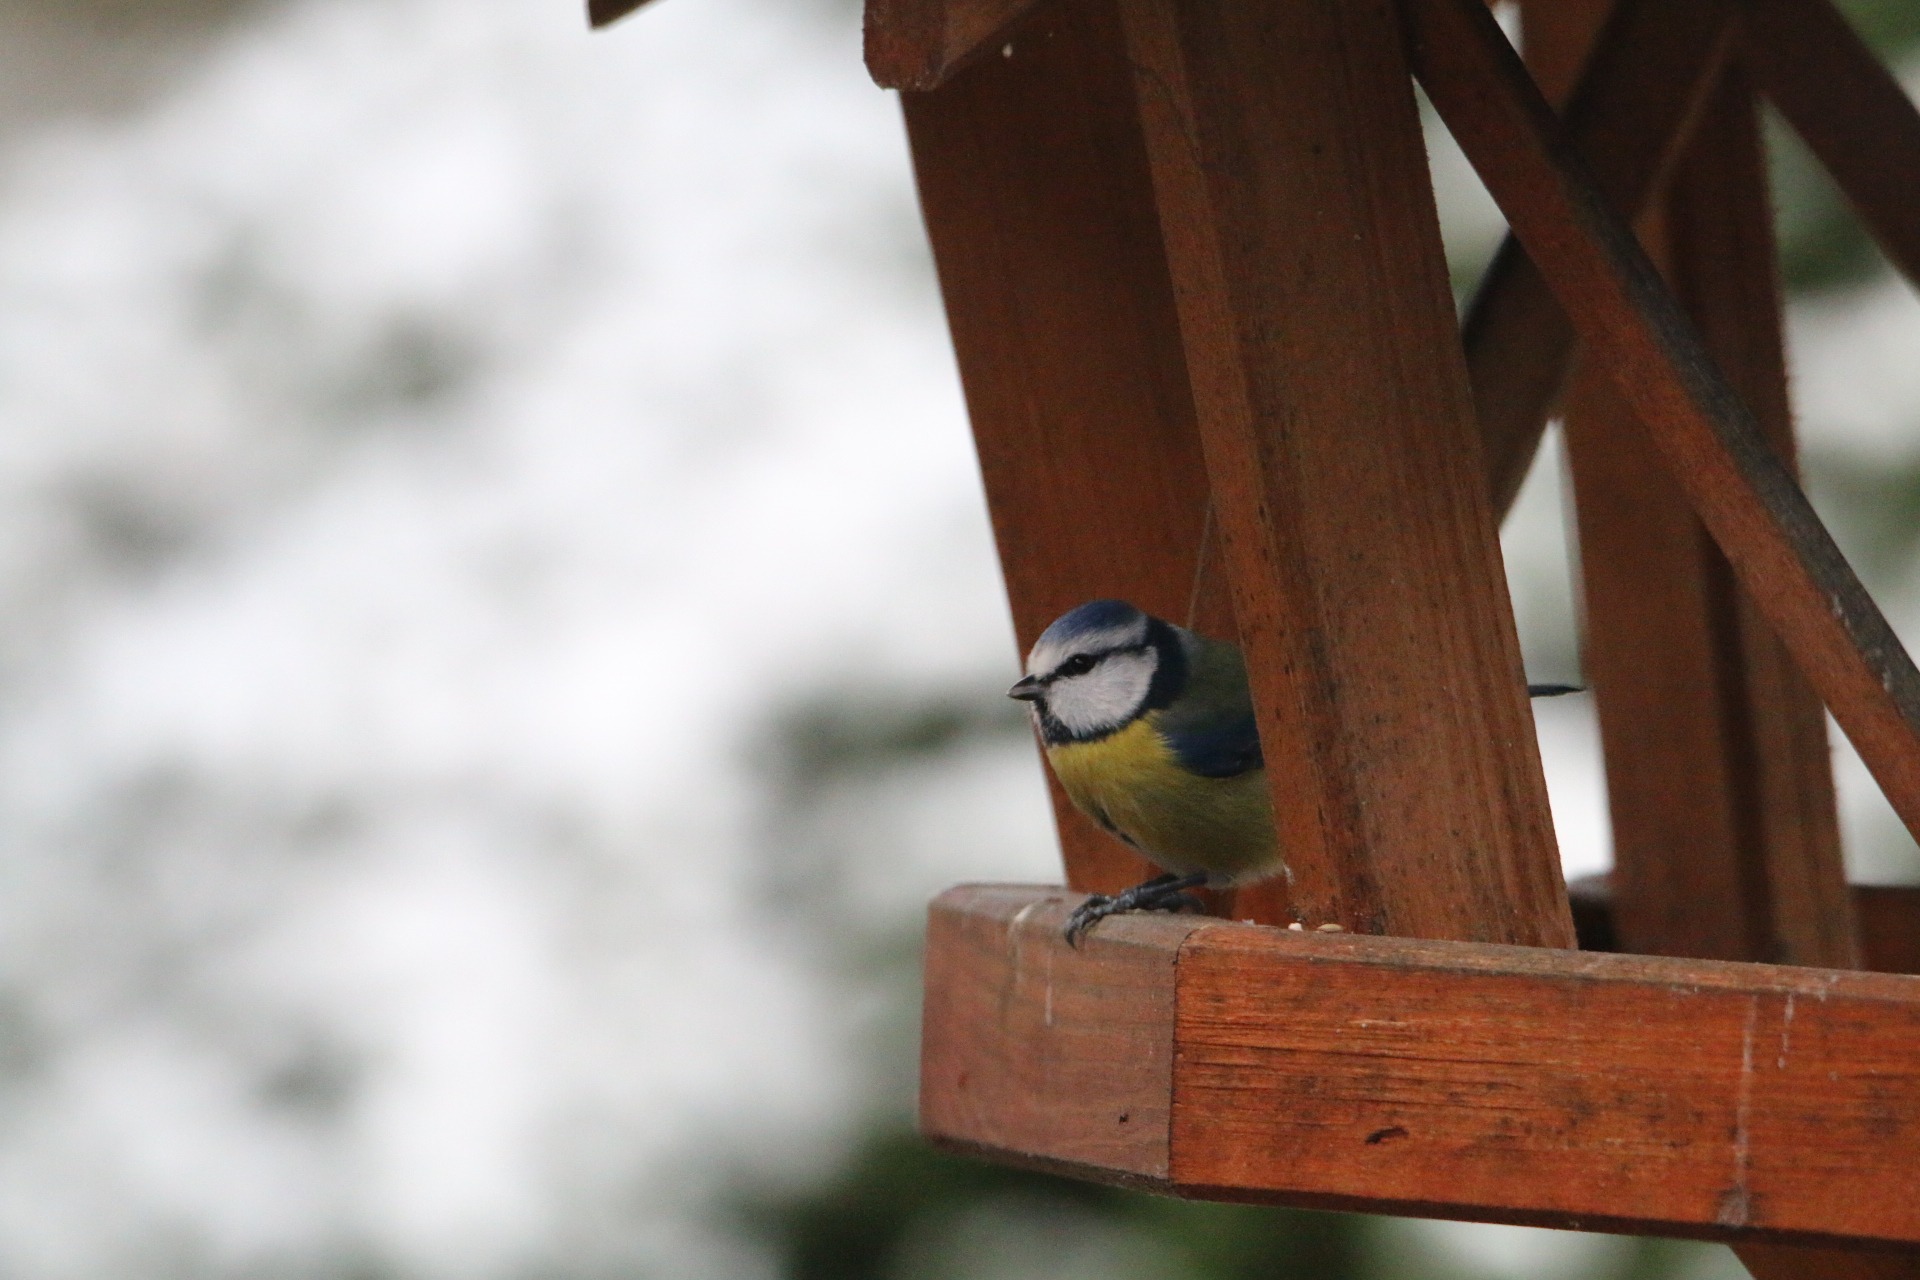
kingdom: Animalia
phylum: Chordata
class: Aves
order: Passeriformes
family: Paridae
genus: Cyanistes
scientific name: Cyanistes caeruleus
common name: Blåmejse
